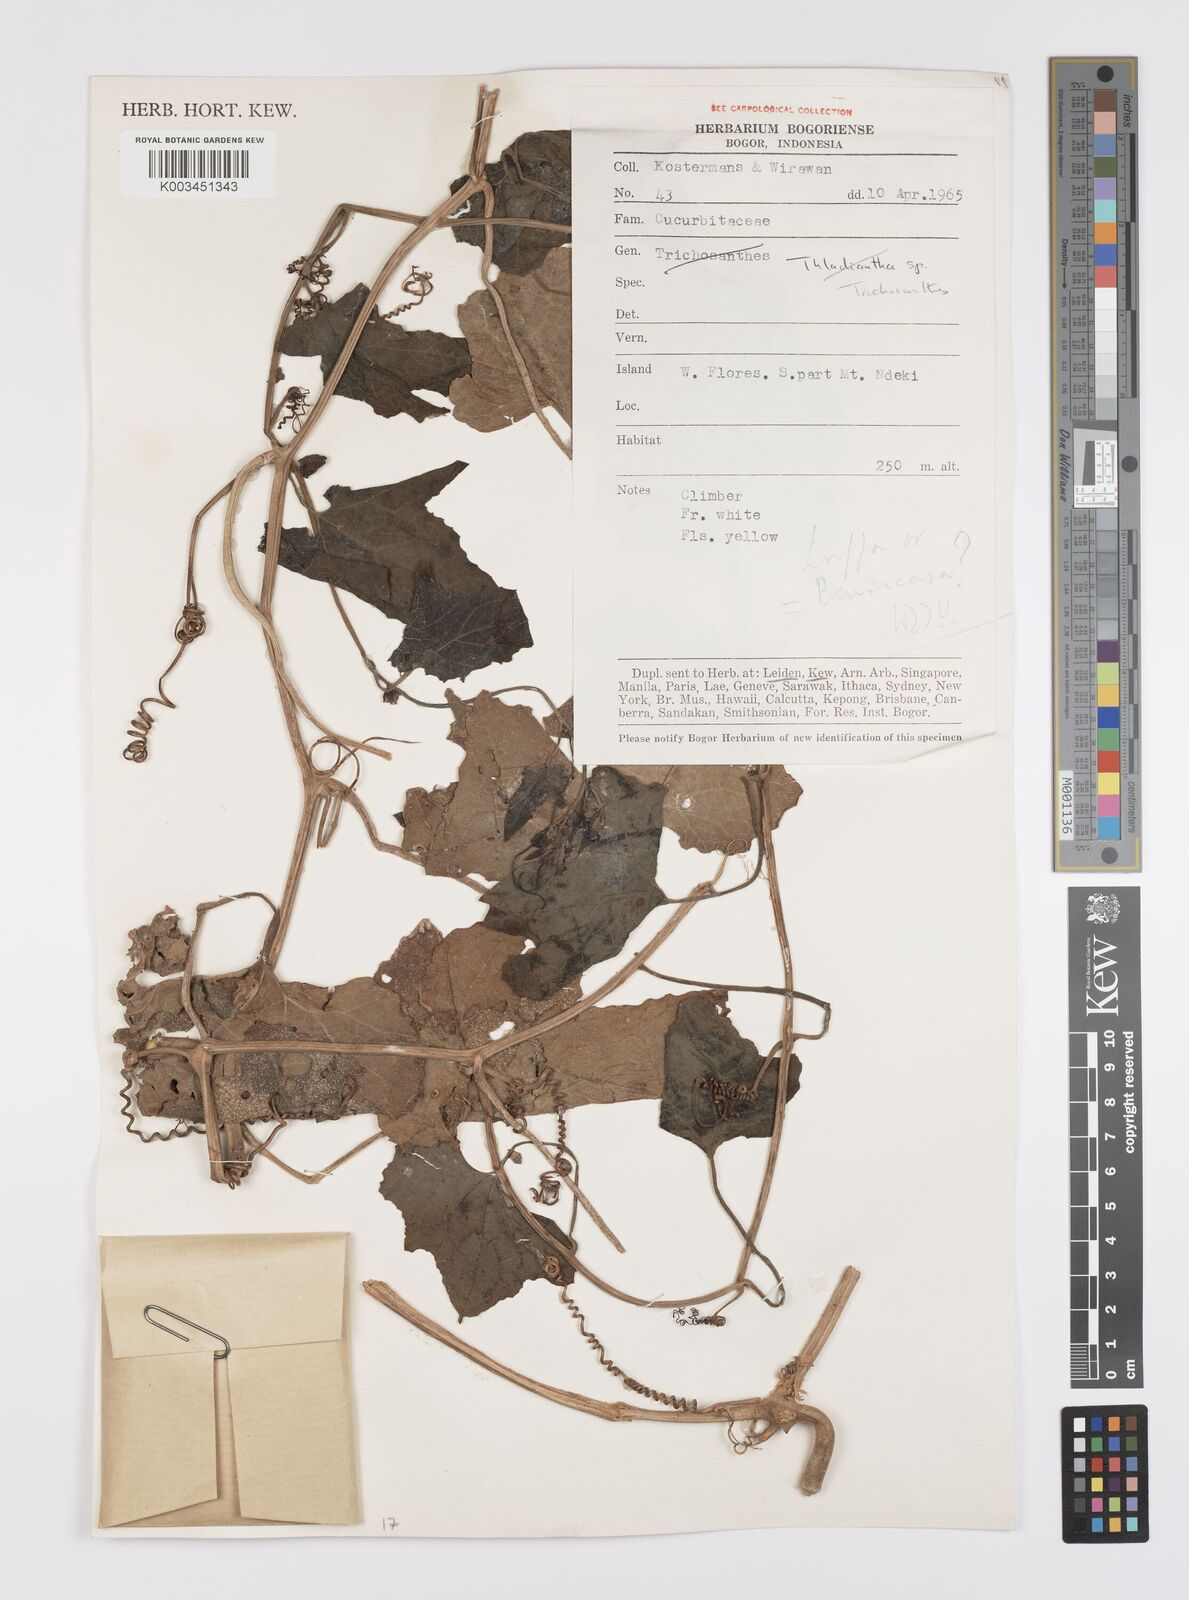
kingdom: Plantae
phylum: Tracheophyta
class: Magnoliopsida
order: Cucurbitales
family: Cucurbitaceae
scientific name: Cucurbitaceae
